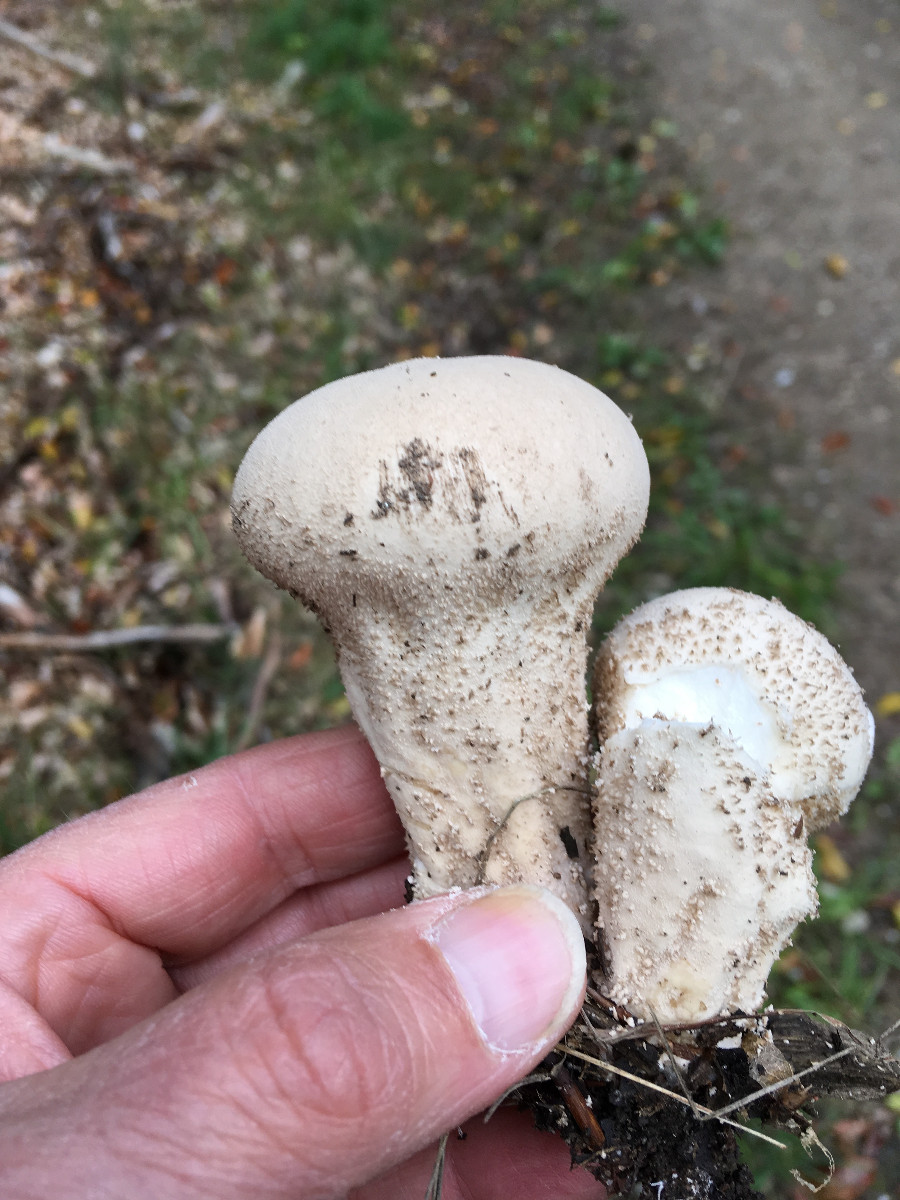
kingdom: Fungi
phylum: Basidiomycota
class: Agaricomycetes
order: Agaricales
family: Lycoperdaceae
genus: Lycoperdon
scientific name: Lycoperdon excipuliforme
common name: højstokket støvbold
